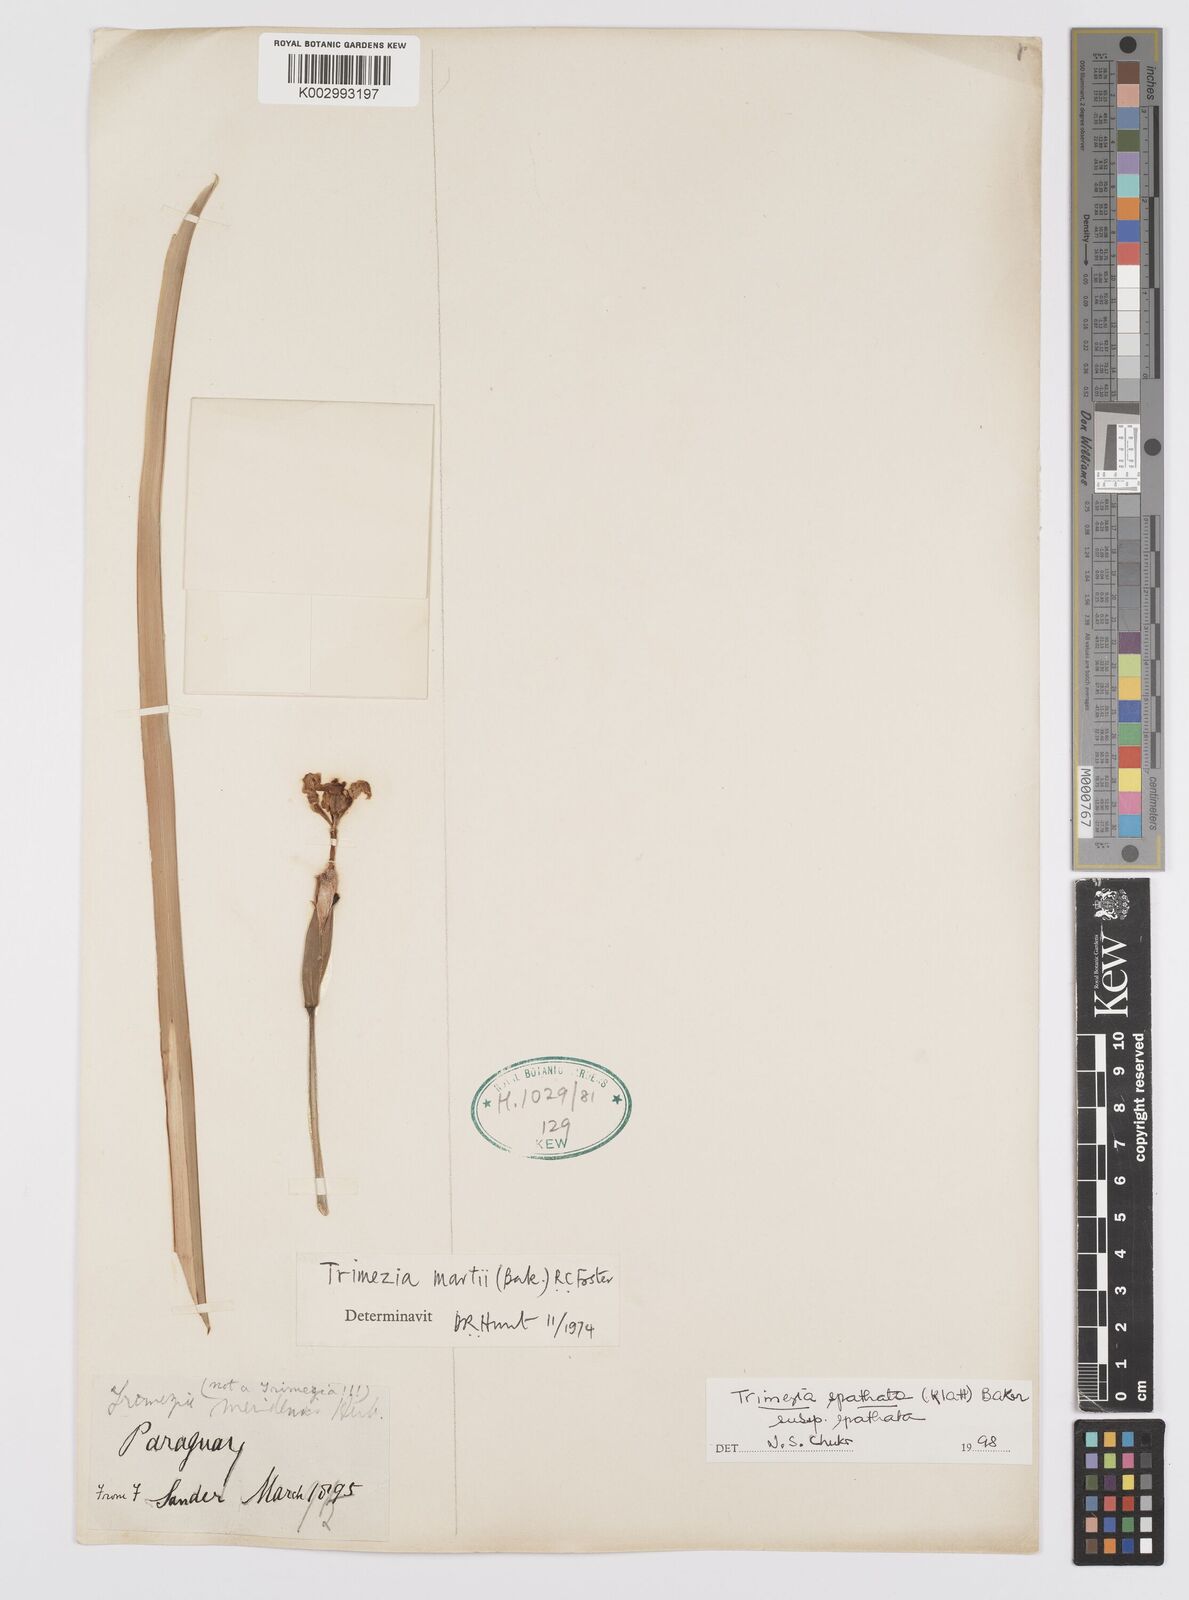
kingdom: Plantae
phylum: Tracheophyta
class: Liliopsida
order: Asparagales
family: Iridaceae
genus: Trimezia
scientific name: Trimezia spathata
